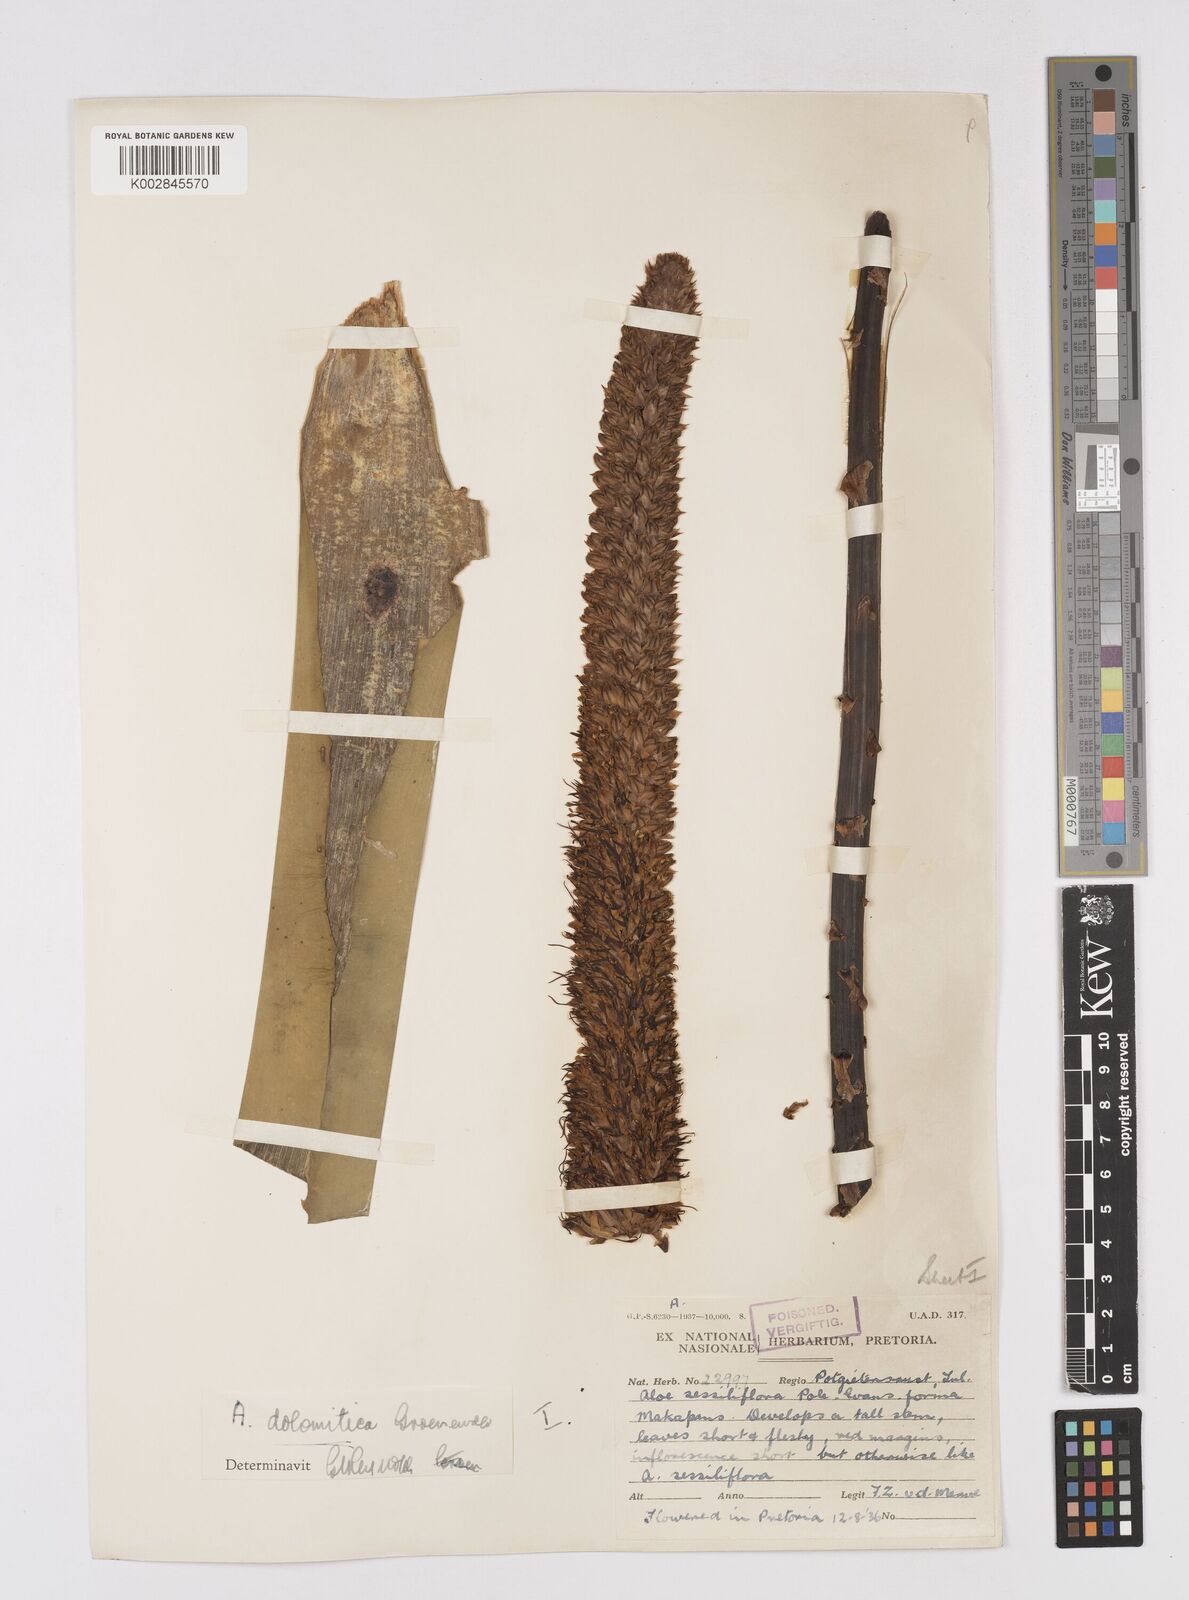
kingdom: Plantae
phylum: Tracheophyta
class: Liliopsida
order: Asparagales
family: Asphodelaceae
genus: Aloe
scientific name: Aloe vryheidensis
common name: Vryheid aloe
